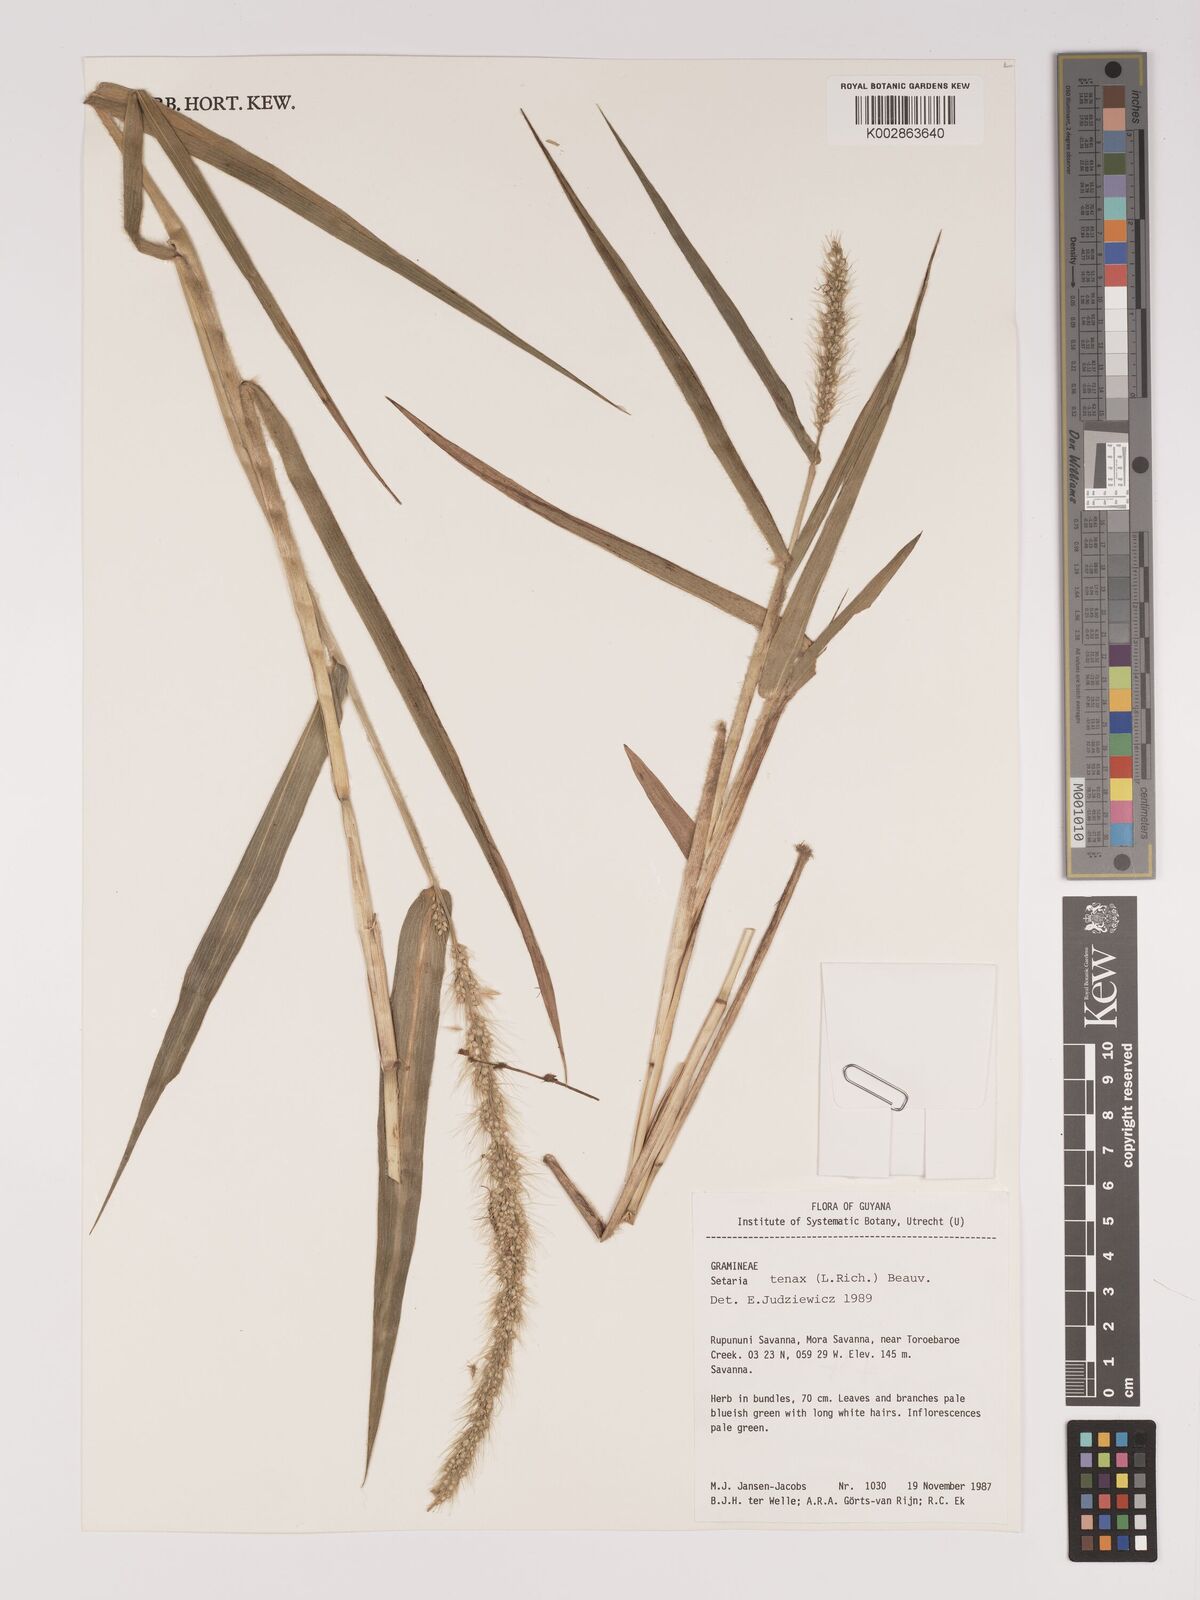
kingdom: Plantae
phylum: Tracheophyta
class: Liliopsida
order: Poales
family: Poaceae
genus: Setaria
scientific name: Setaria tenax
